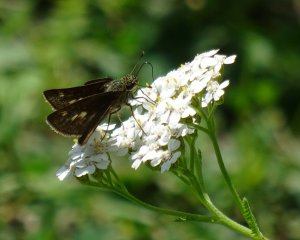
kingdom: Animalia
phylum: Arthropoda
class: Insecta
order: Lepidoptera
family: Hesperiidae
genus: Polites
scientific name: Polites egeremet
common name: Northern Broken-Dash
